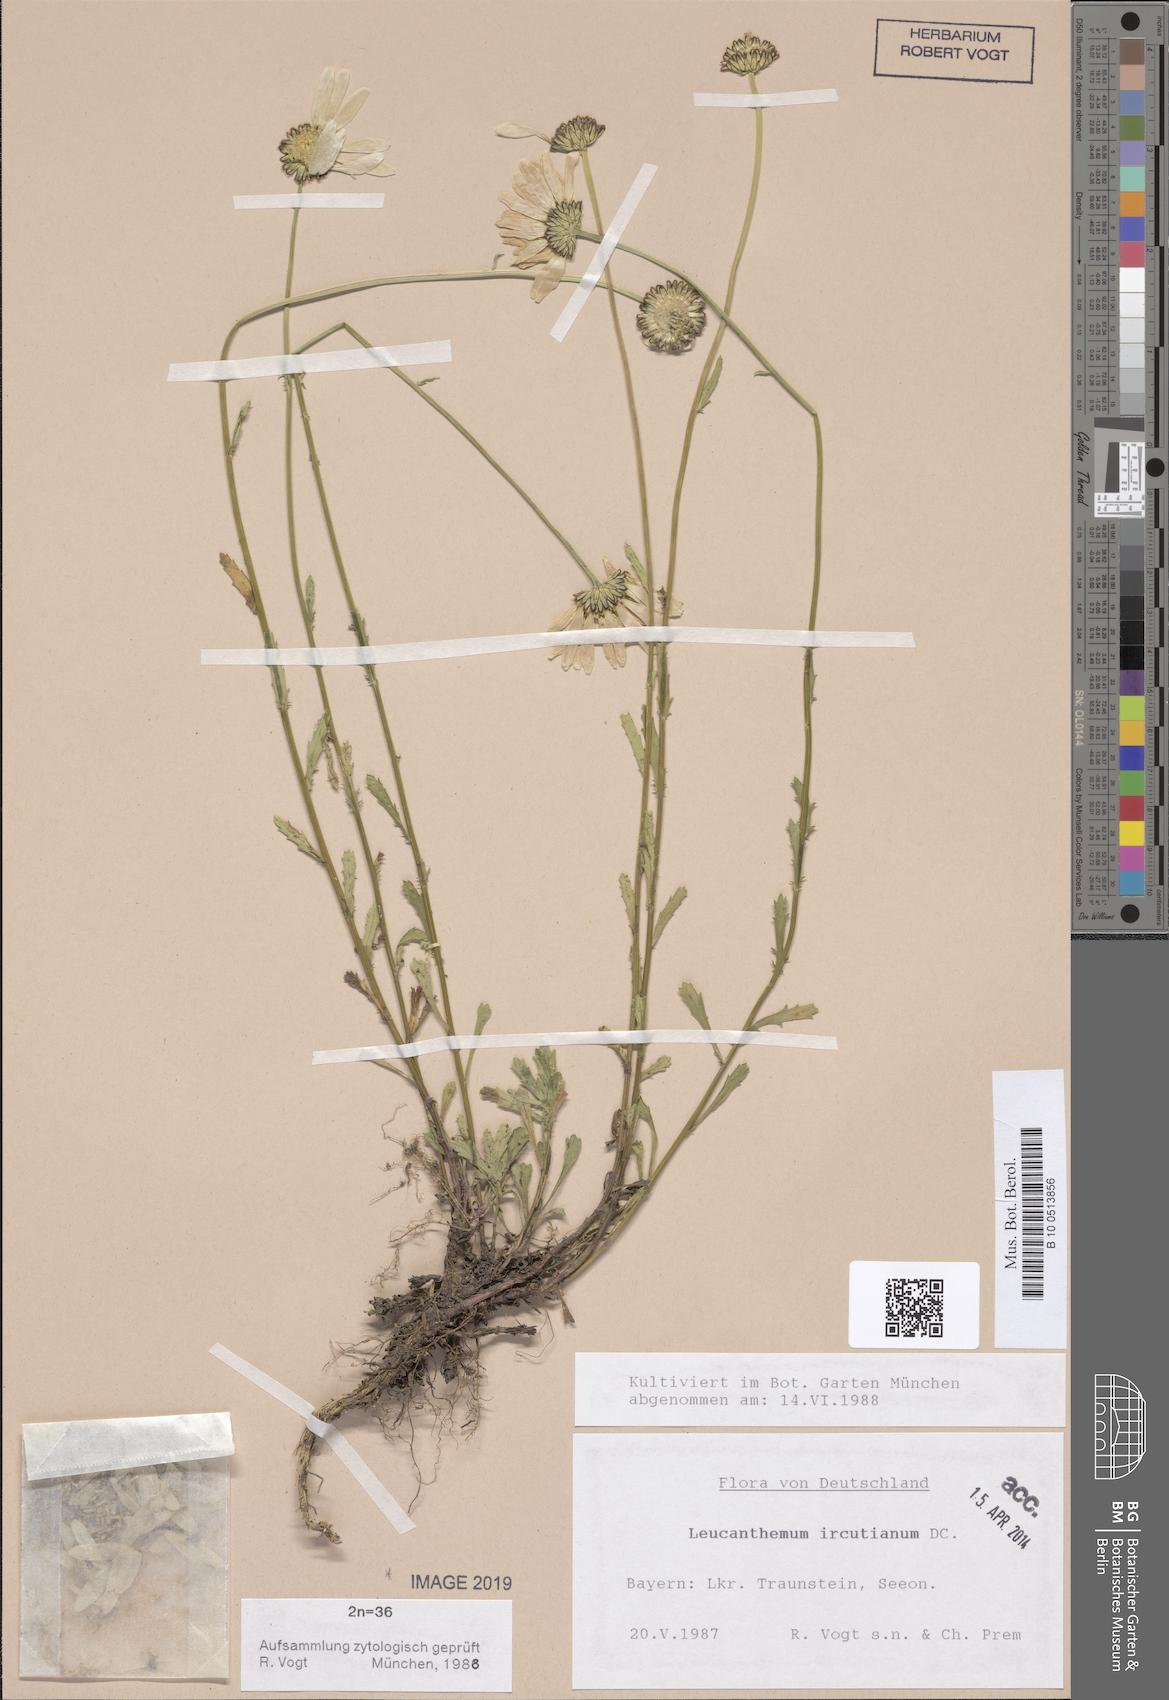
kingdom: Plantae
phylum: Tracheophyta
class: Magnoliopsida
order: Asterales
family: Asteraceae
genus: Leucanthemum
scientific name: Leucanthemum ircutianum
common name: Daisy
